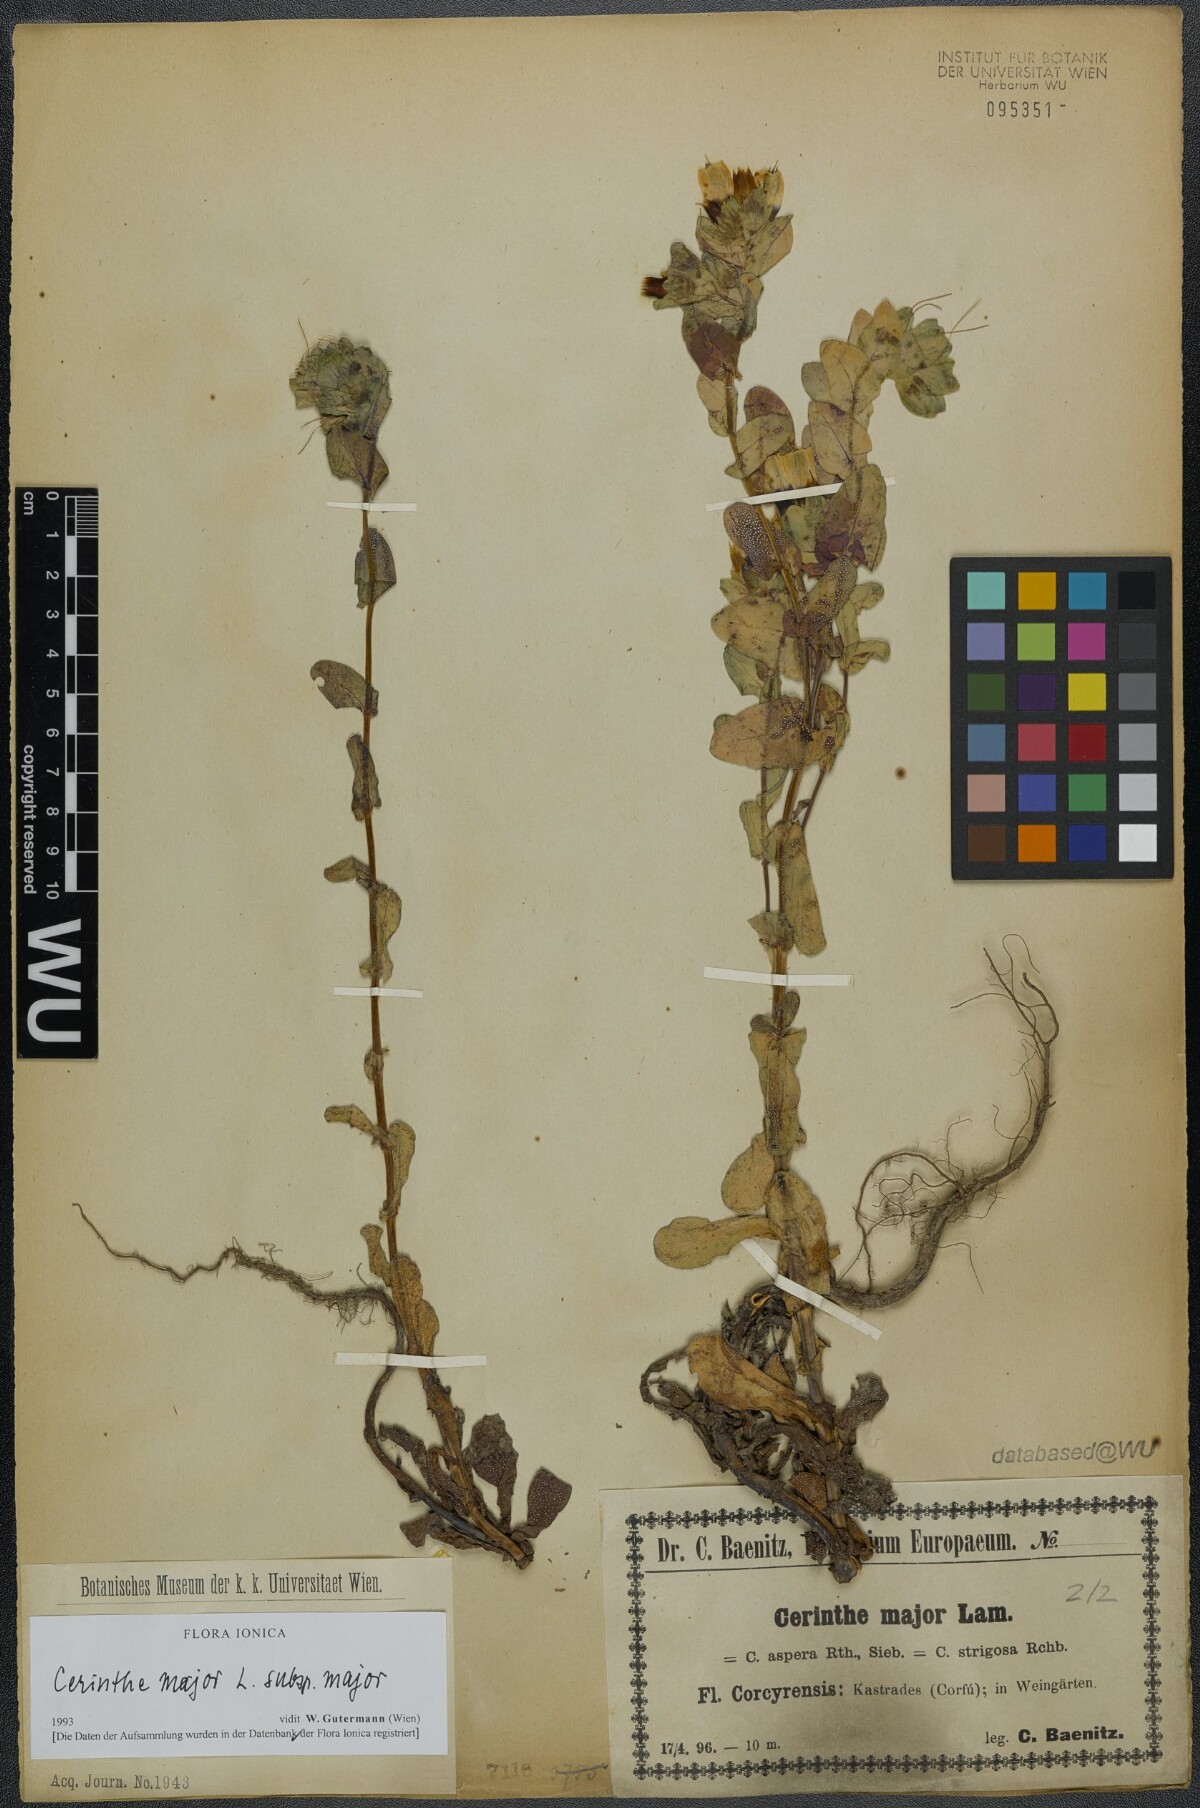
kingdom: Plantae
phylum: Tracheophyta
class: Magnoliopsida
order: Boraginales
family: Boraginaceae
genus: Cerinthe
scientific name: Cerinthe major
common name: Greater honeywort
